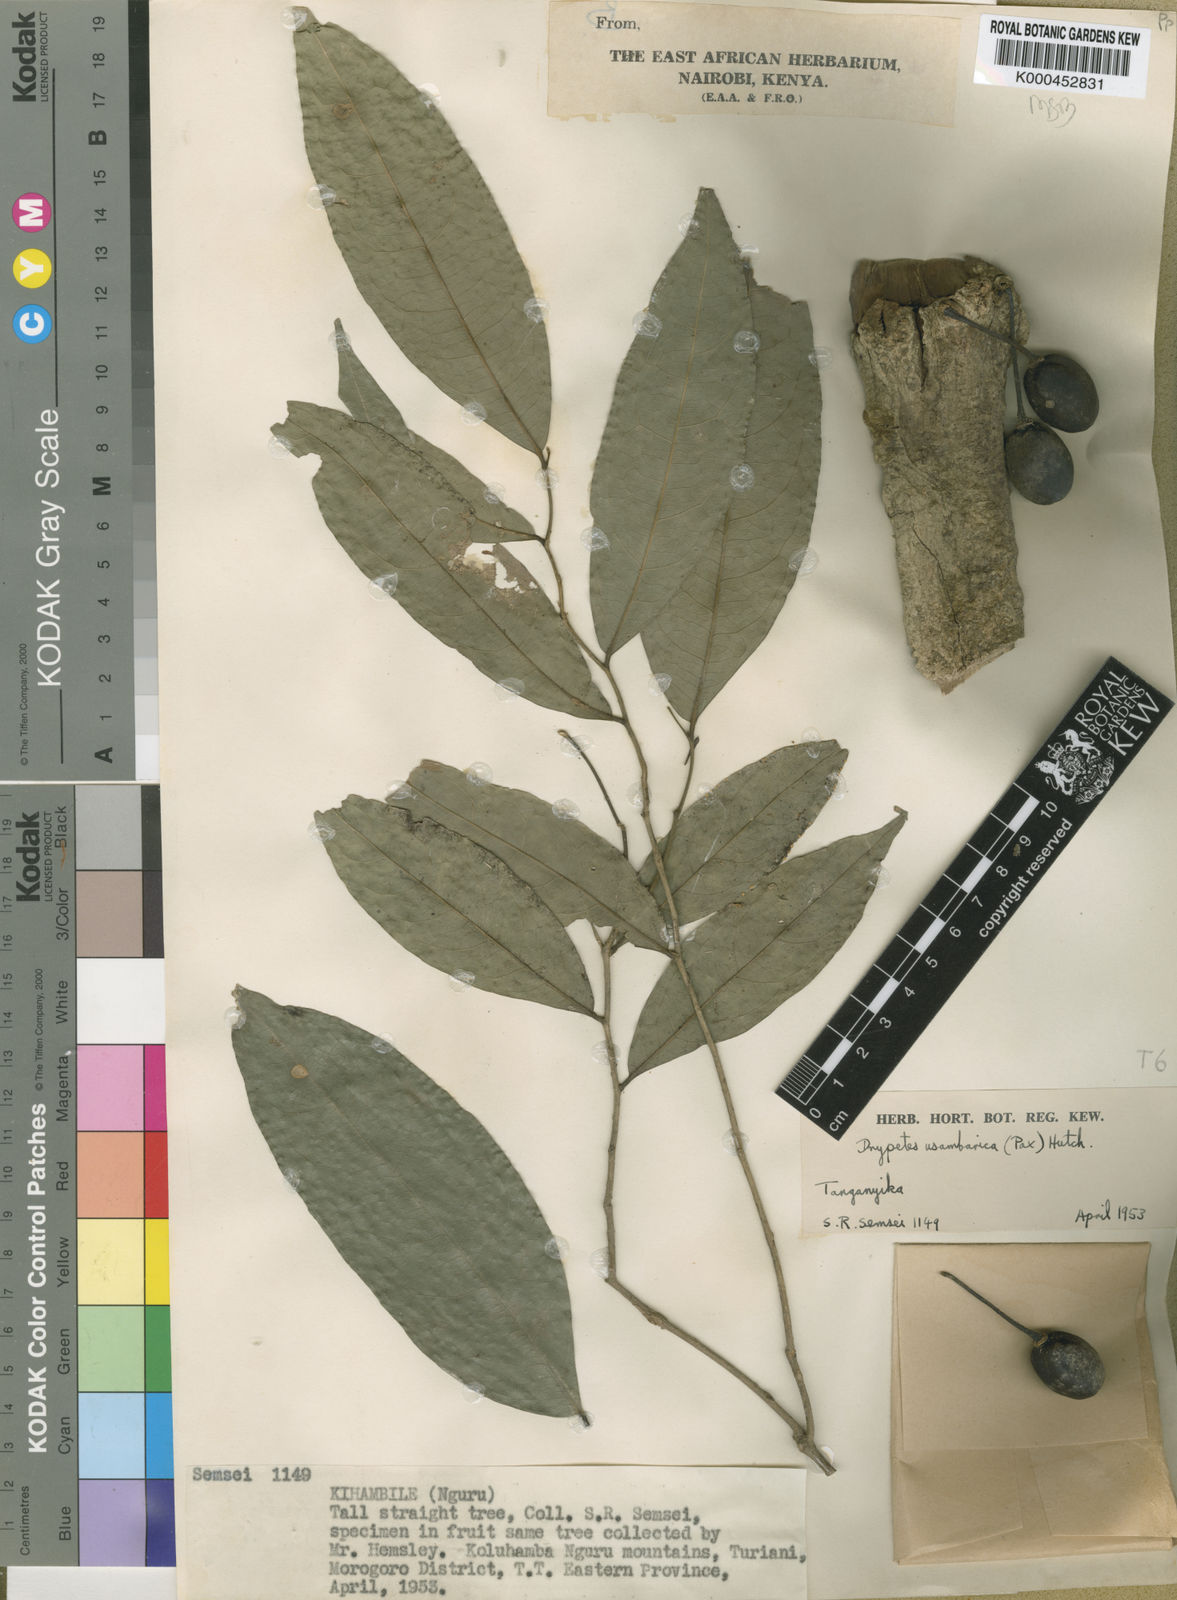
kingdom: Plantae
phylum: Tracheophyta
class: Magnoliopsida
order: Malpighiales
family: Putranjivaceae
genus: Drypetes
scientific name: Drypetes usambarica
